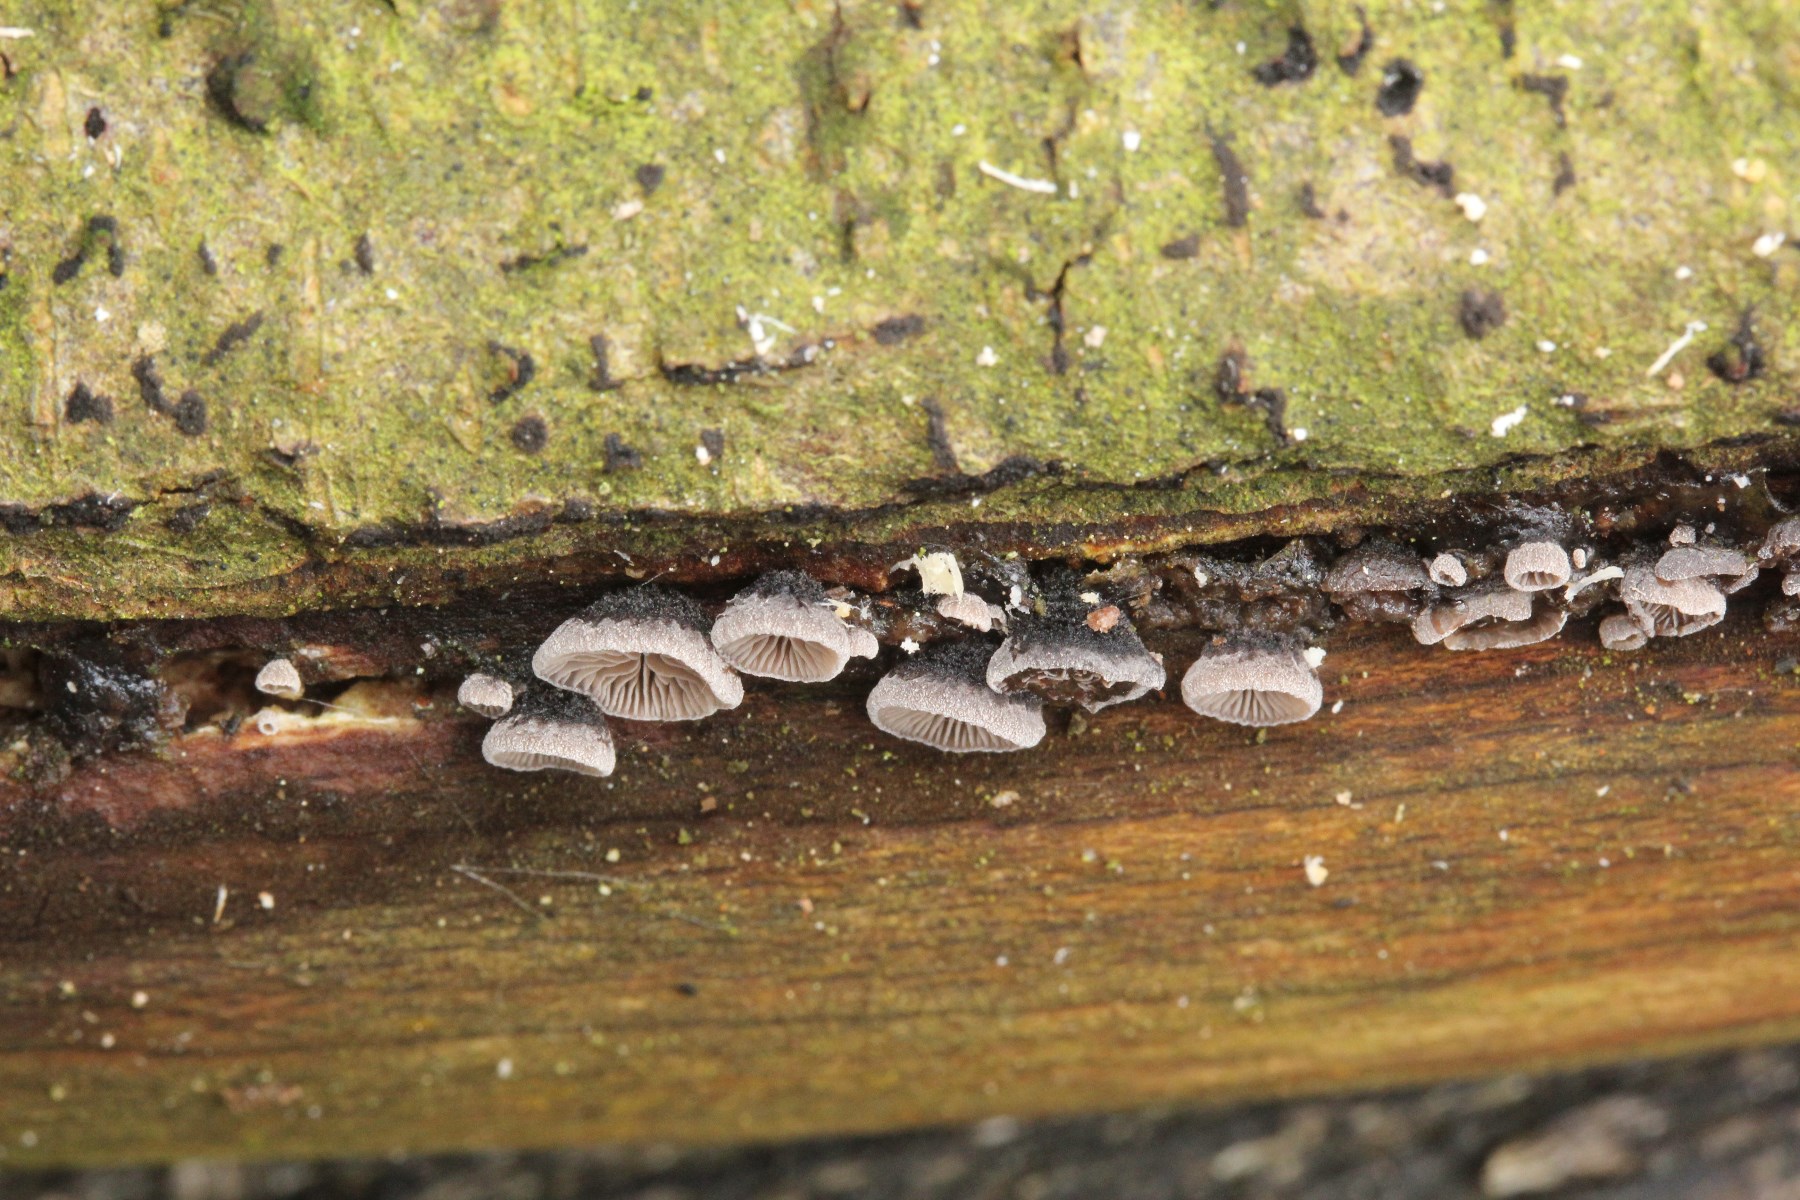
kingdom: Fungi
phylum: Basidiomycota
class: Agaricomycetes
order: Agaricales
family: Pleurotaceae
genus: Resupinatus
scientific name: Resupinatus trichotis
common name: mørkfiltet barkhat
